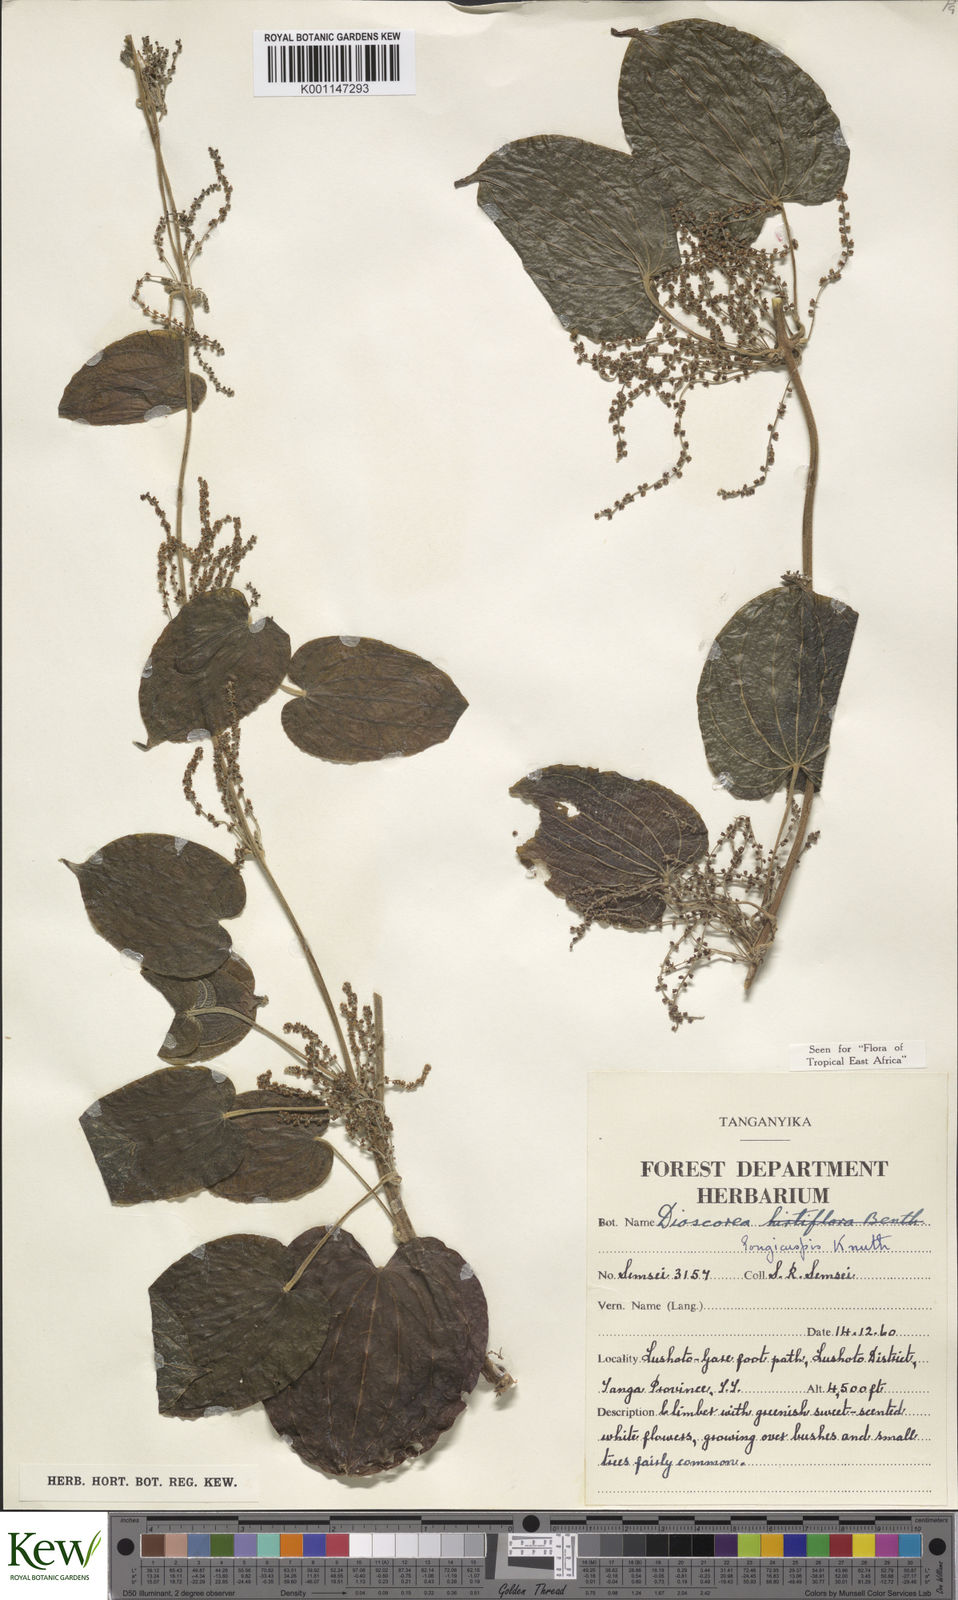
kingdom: Plantae
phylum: Tracheophyta
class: Liliopsida
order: Dioscoreales
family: Dioscoreaceae
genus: Dioscorea
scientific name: Dioscorea longicuspis
